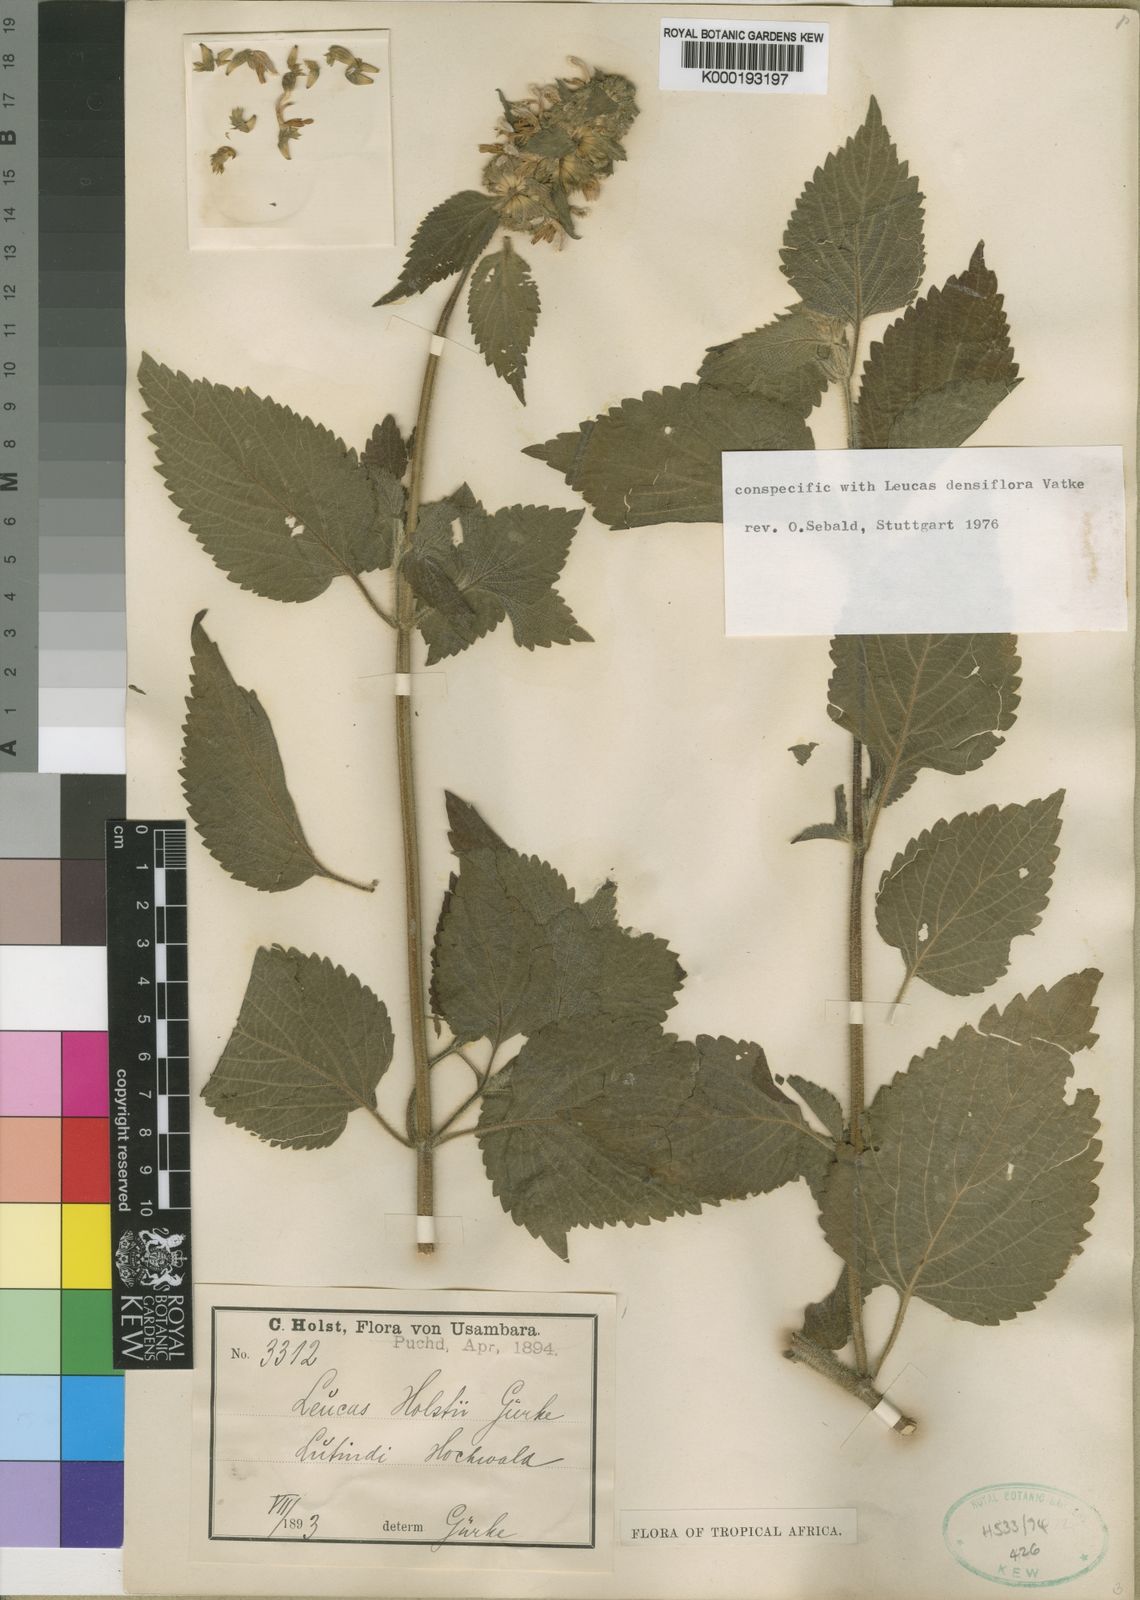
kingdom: Plantae
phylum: Tracheophyta
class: Magnoliopsida
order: Lamiales
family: Lamiaceae
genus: Leucas
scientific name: Leucas
